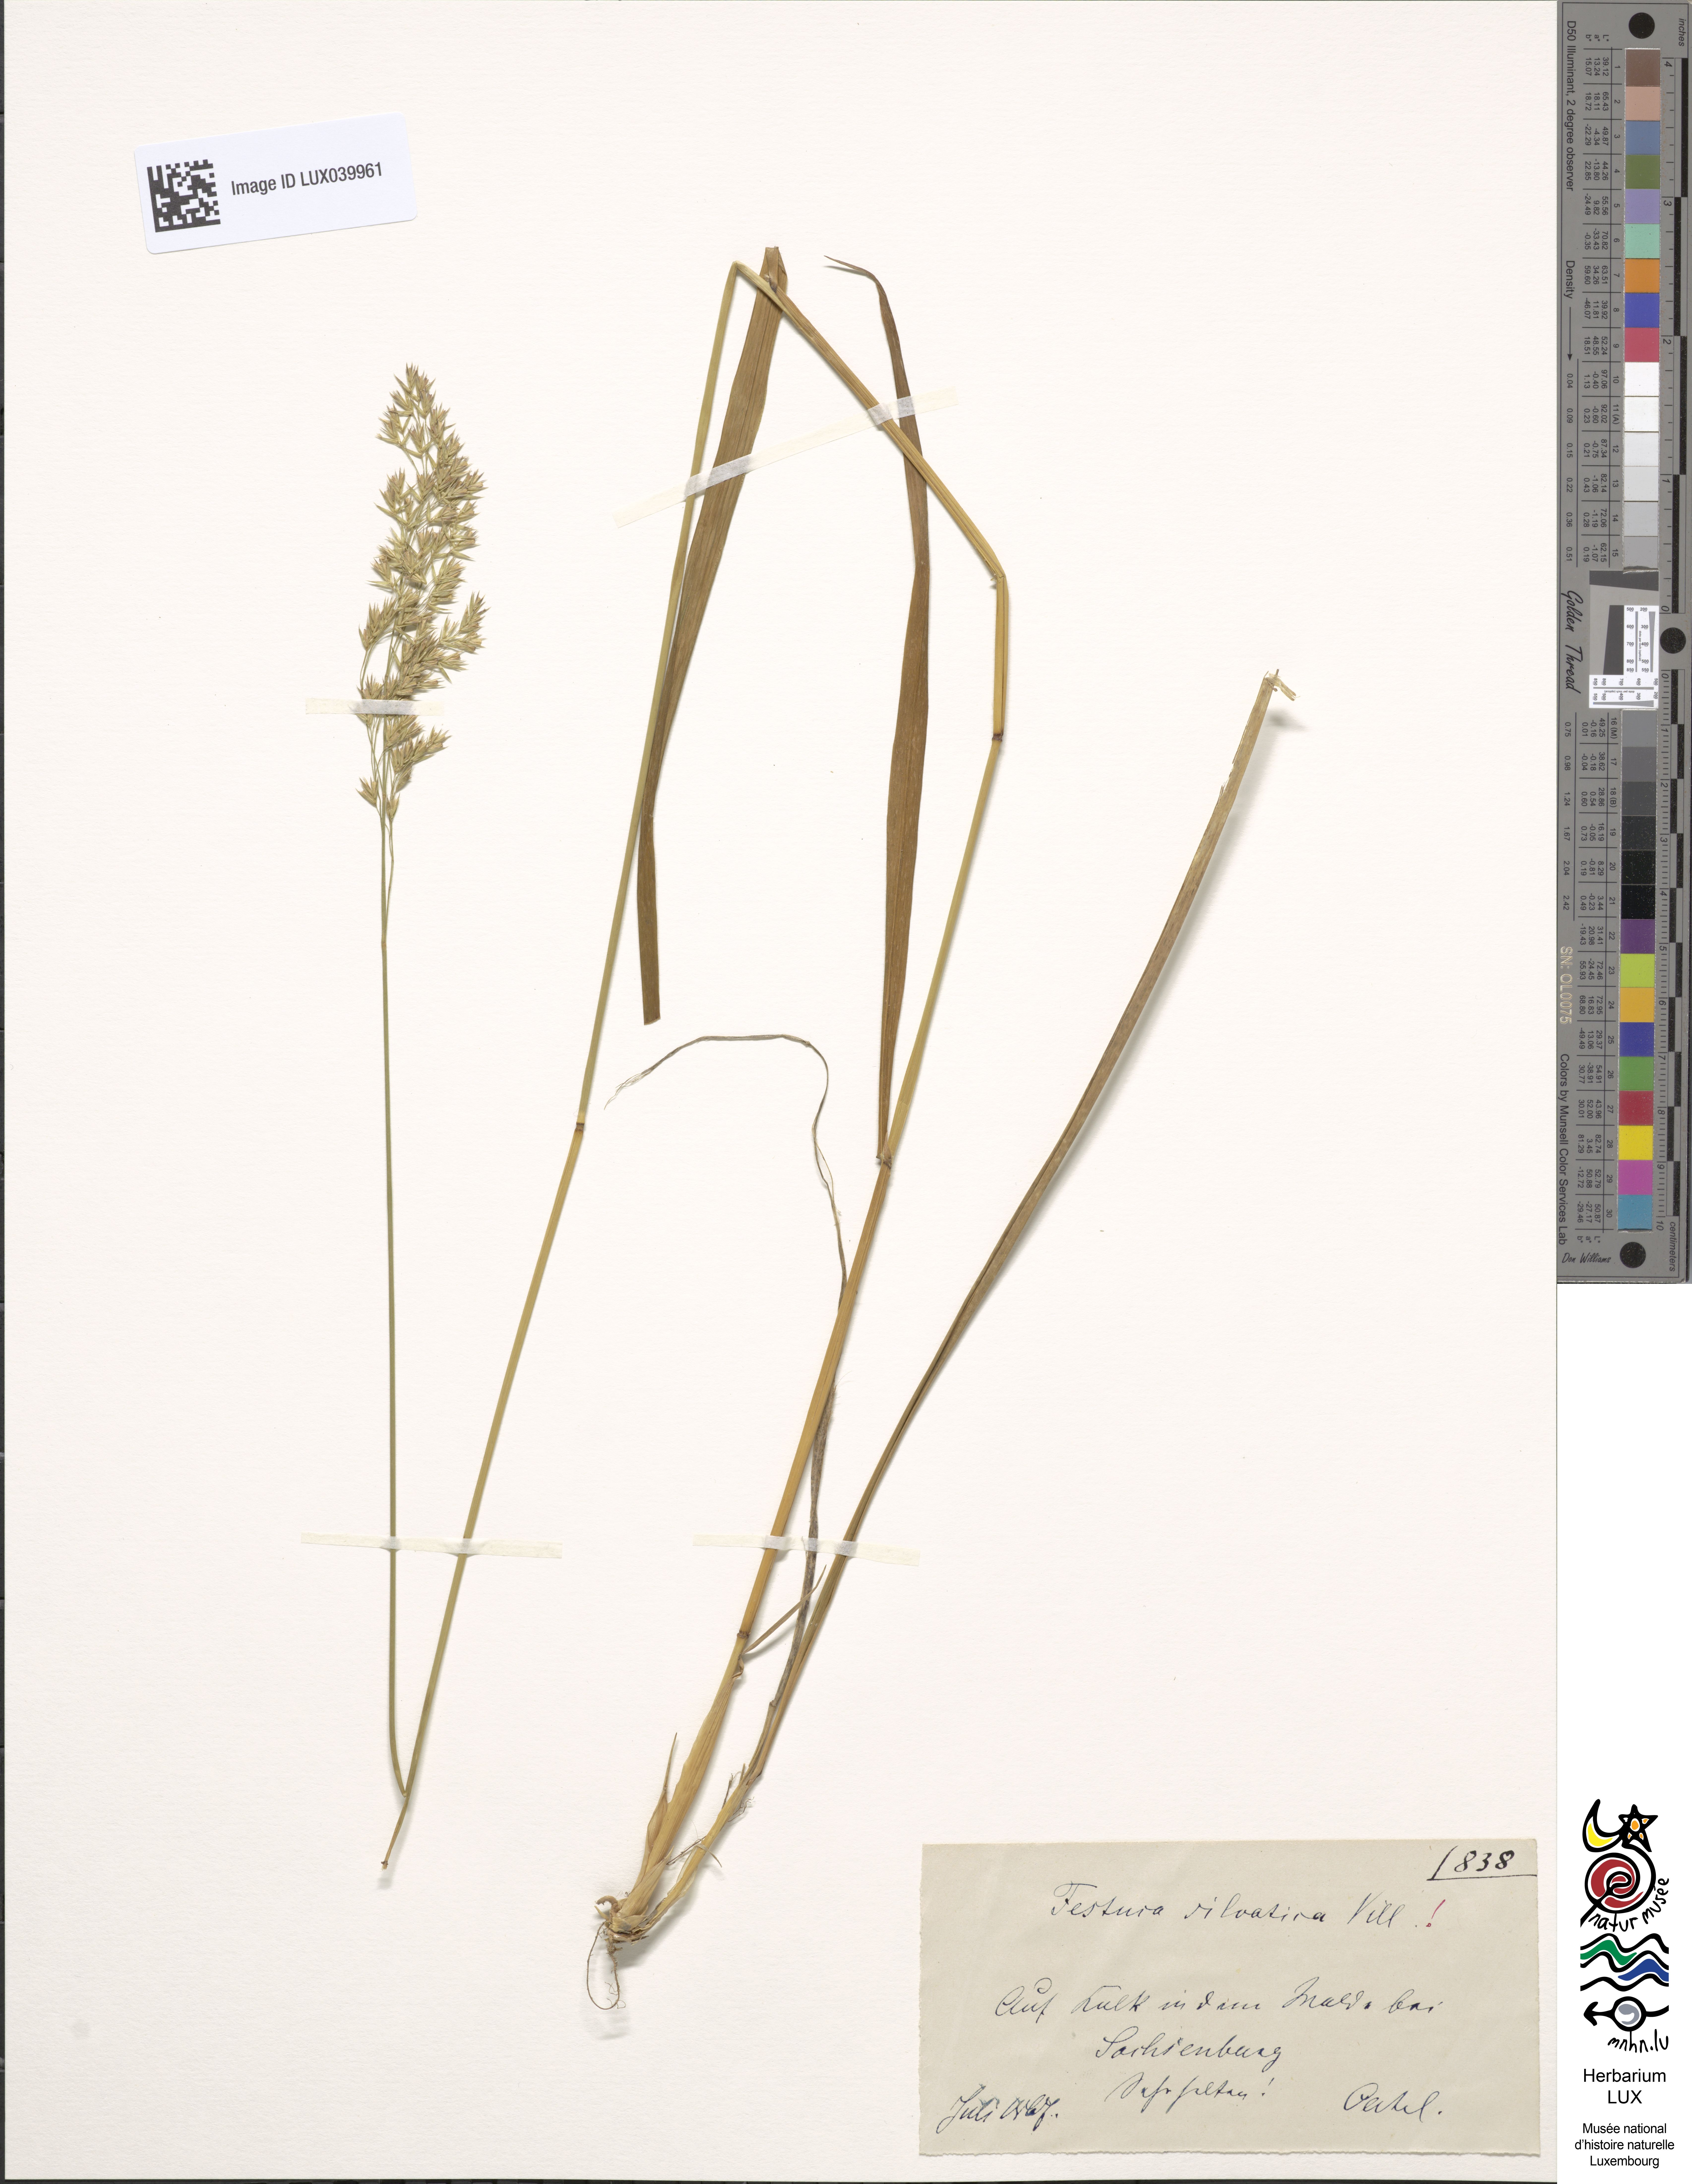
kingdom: Plantae
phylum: Tracheophyta
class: Liliopsida
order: Poales
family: Poaceae
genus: Festuca
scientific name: Festuca altissima
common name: Wood fescue
